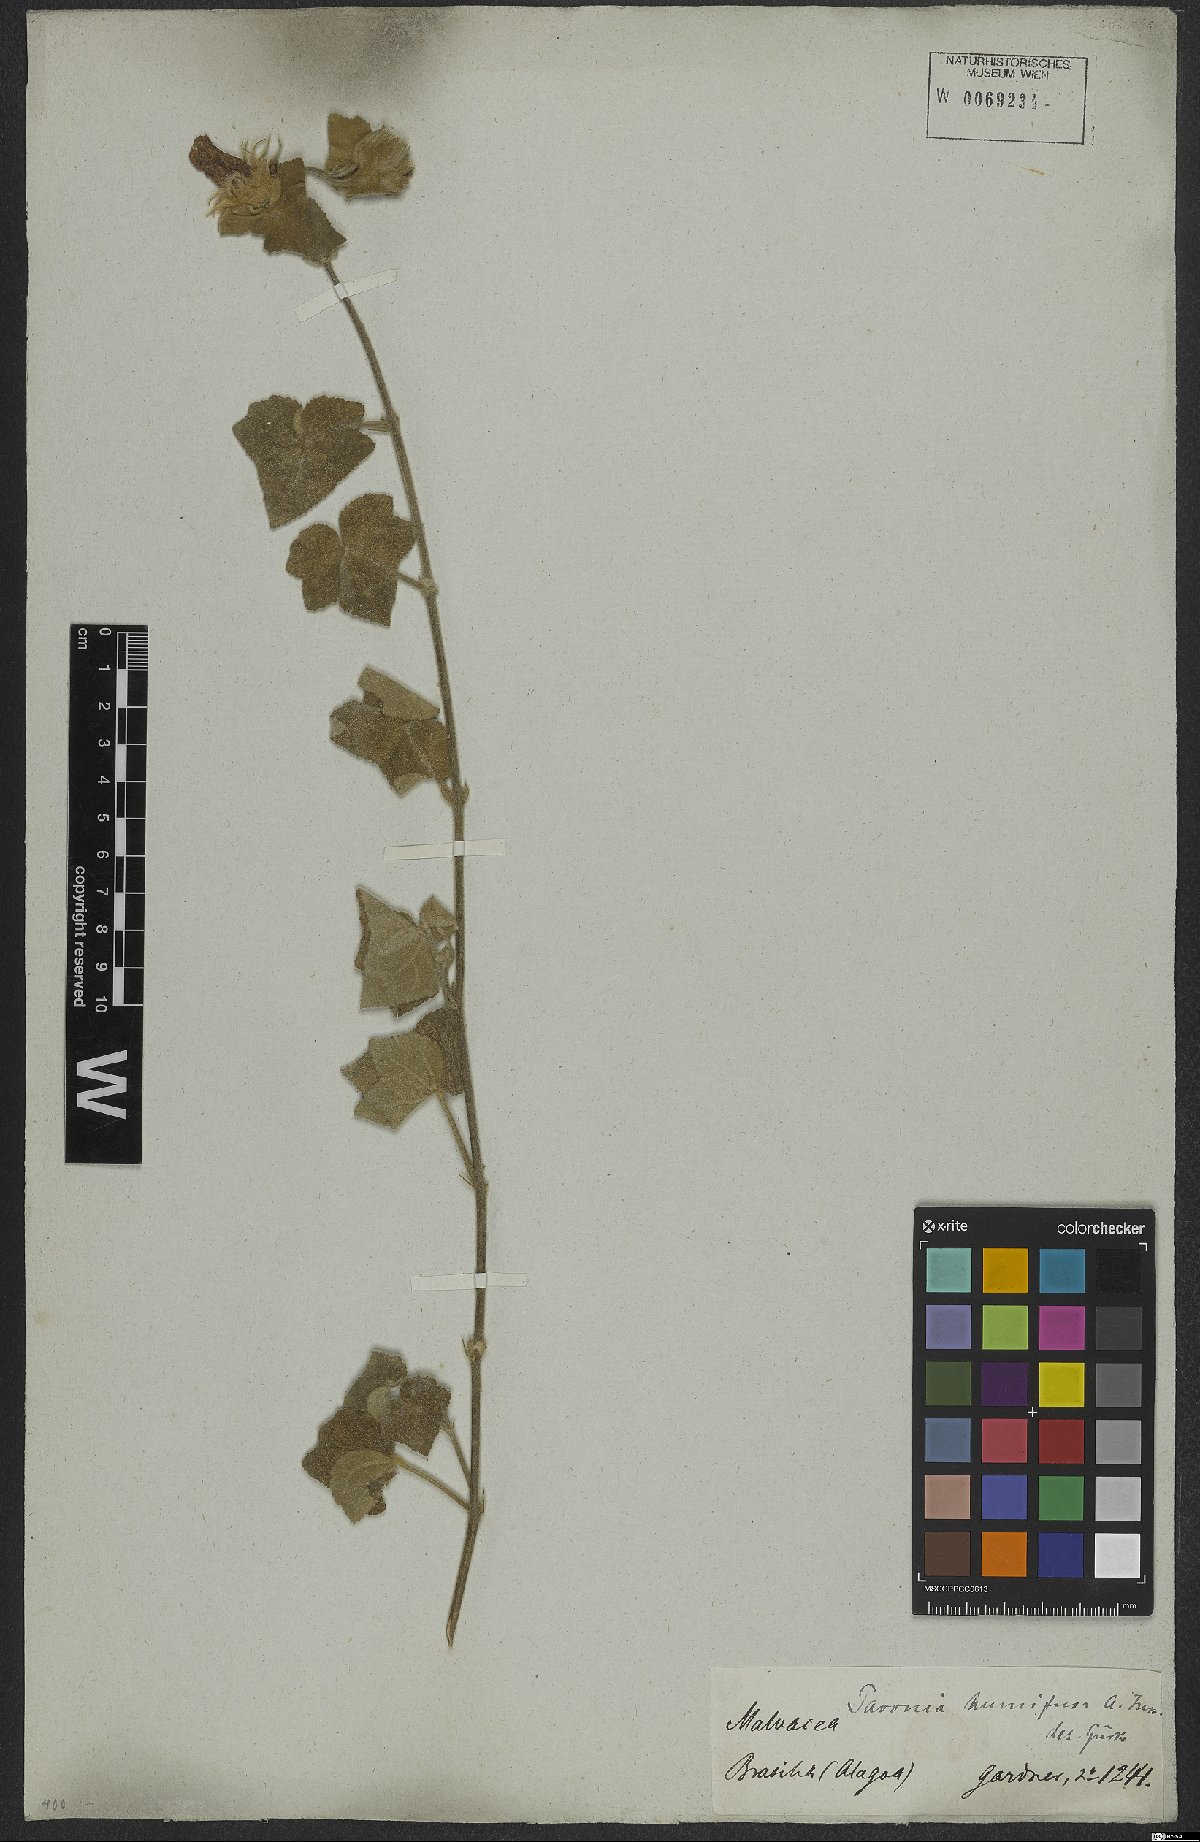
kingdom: Plantae
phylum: Tracheophyta
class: Magnoliopsida
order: Malvales
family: Malvaceae
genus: Pavonia
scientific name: Pavonia humifusa
